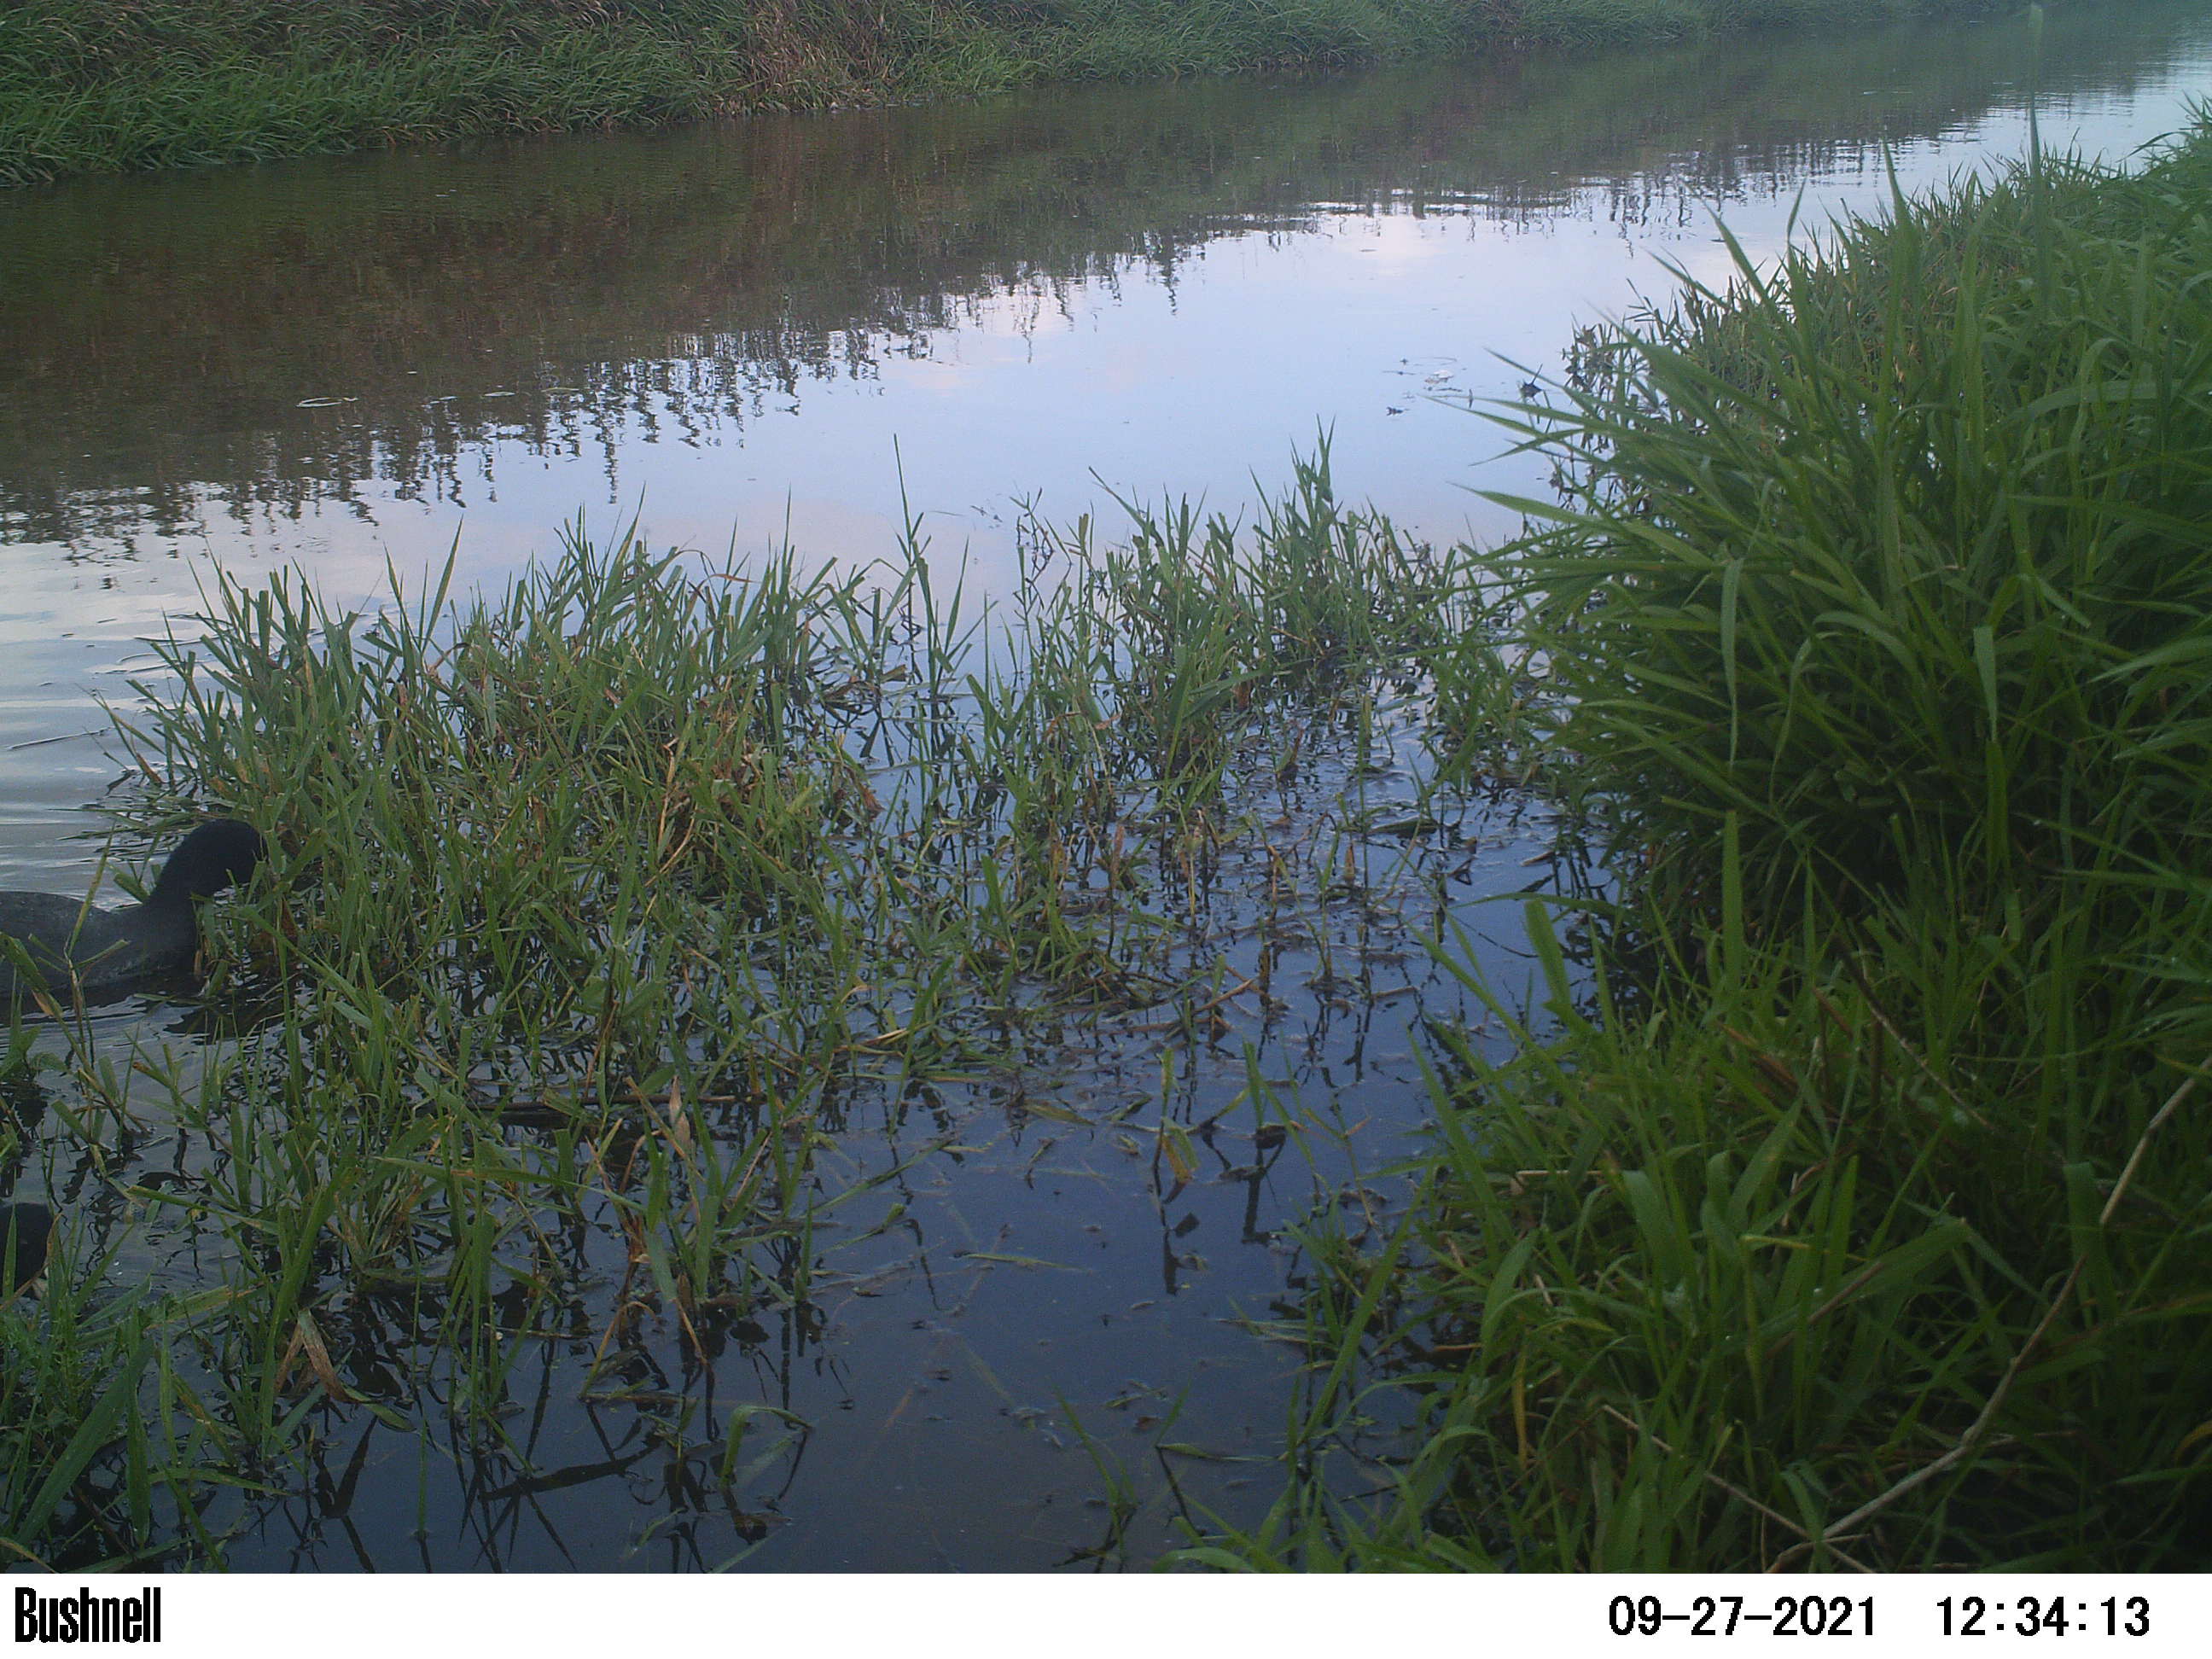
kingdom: Animalia
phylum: Chordata
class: Aves
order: Gruiformes
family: Rallidae
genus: Fulica
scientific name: Fulica atra
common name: Eurasian coot
